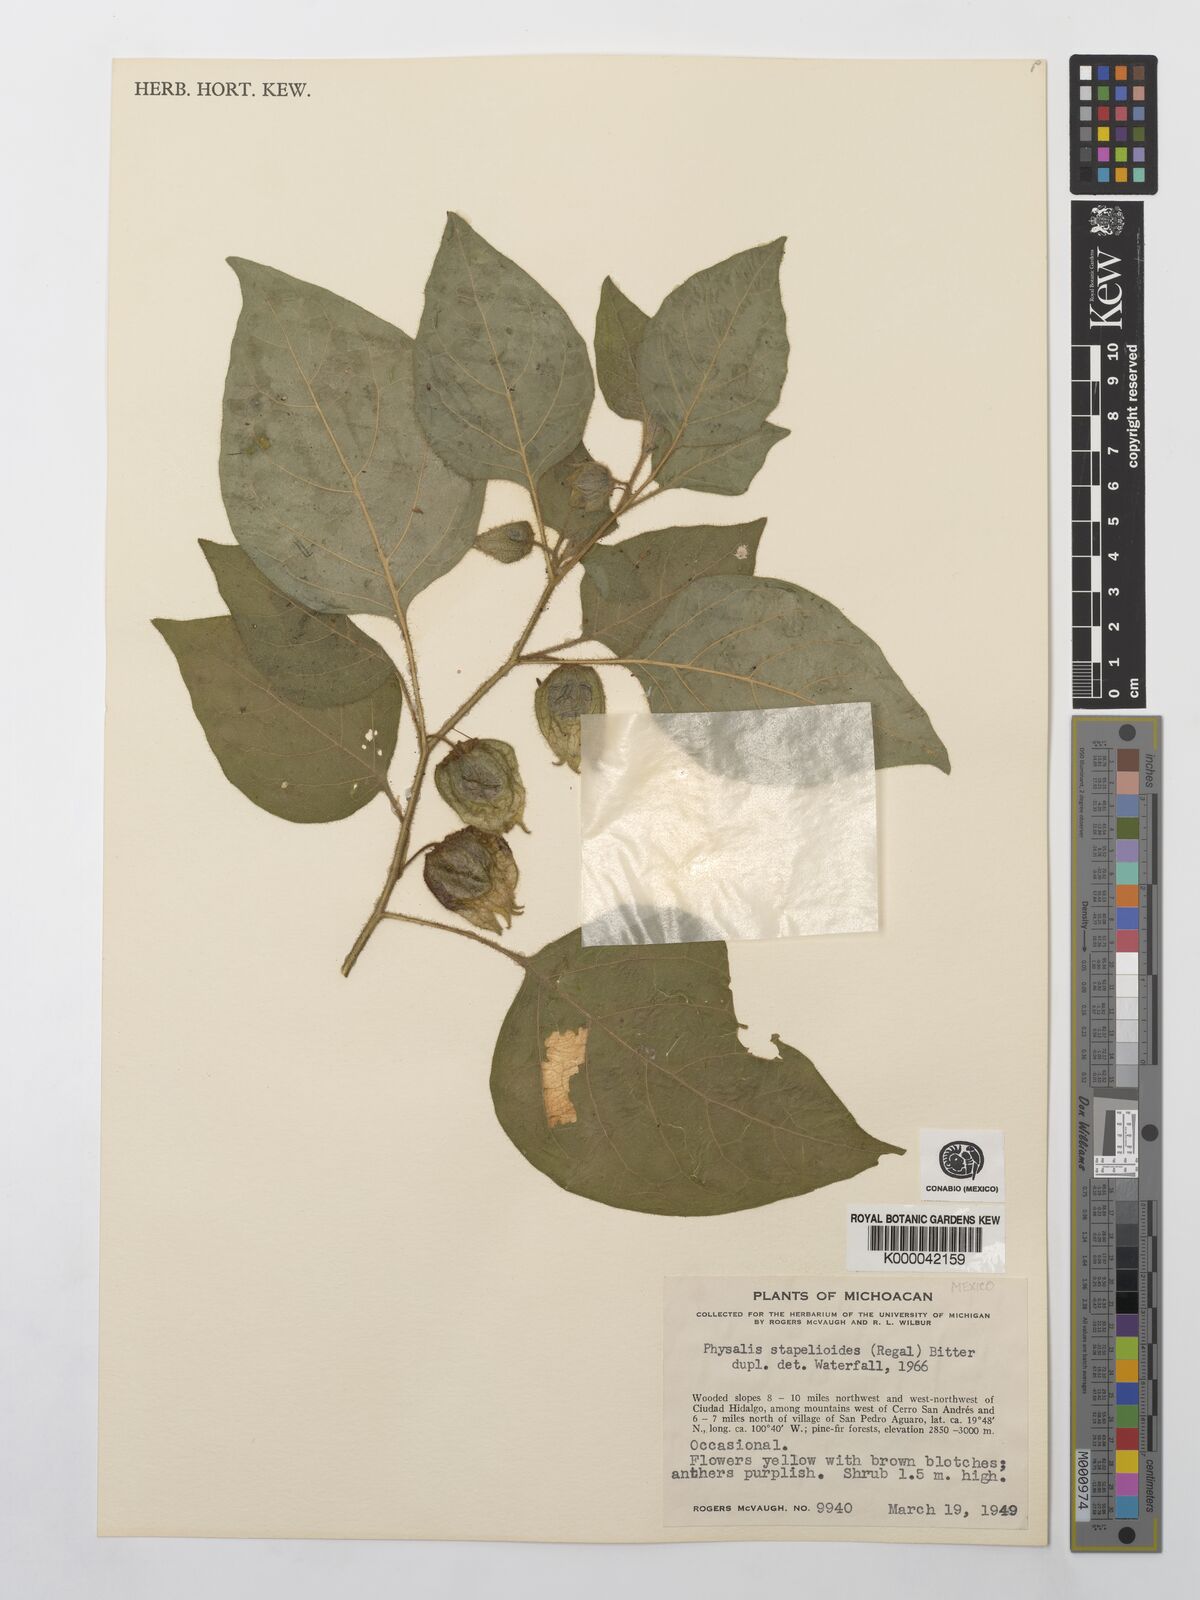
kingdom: Plantae
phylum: Tracheophyta
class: Magnoliopsida
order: Solanales
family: Solanaceae
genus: Physalis
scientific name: Physalis stapelioides
